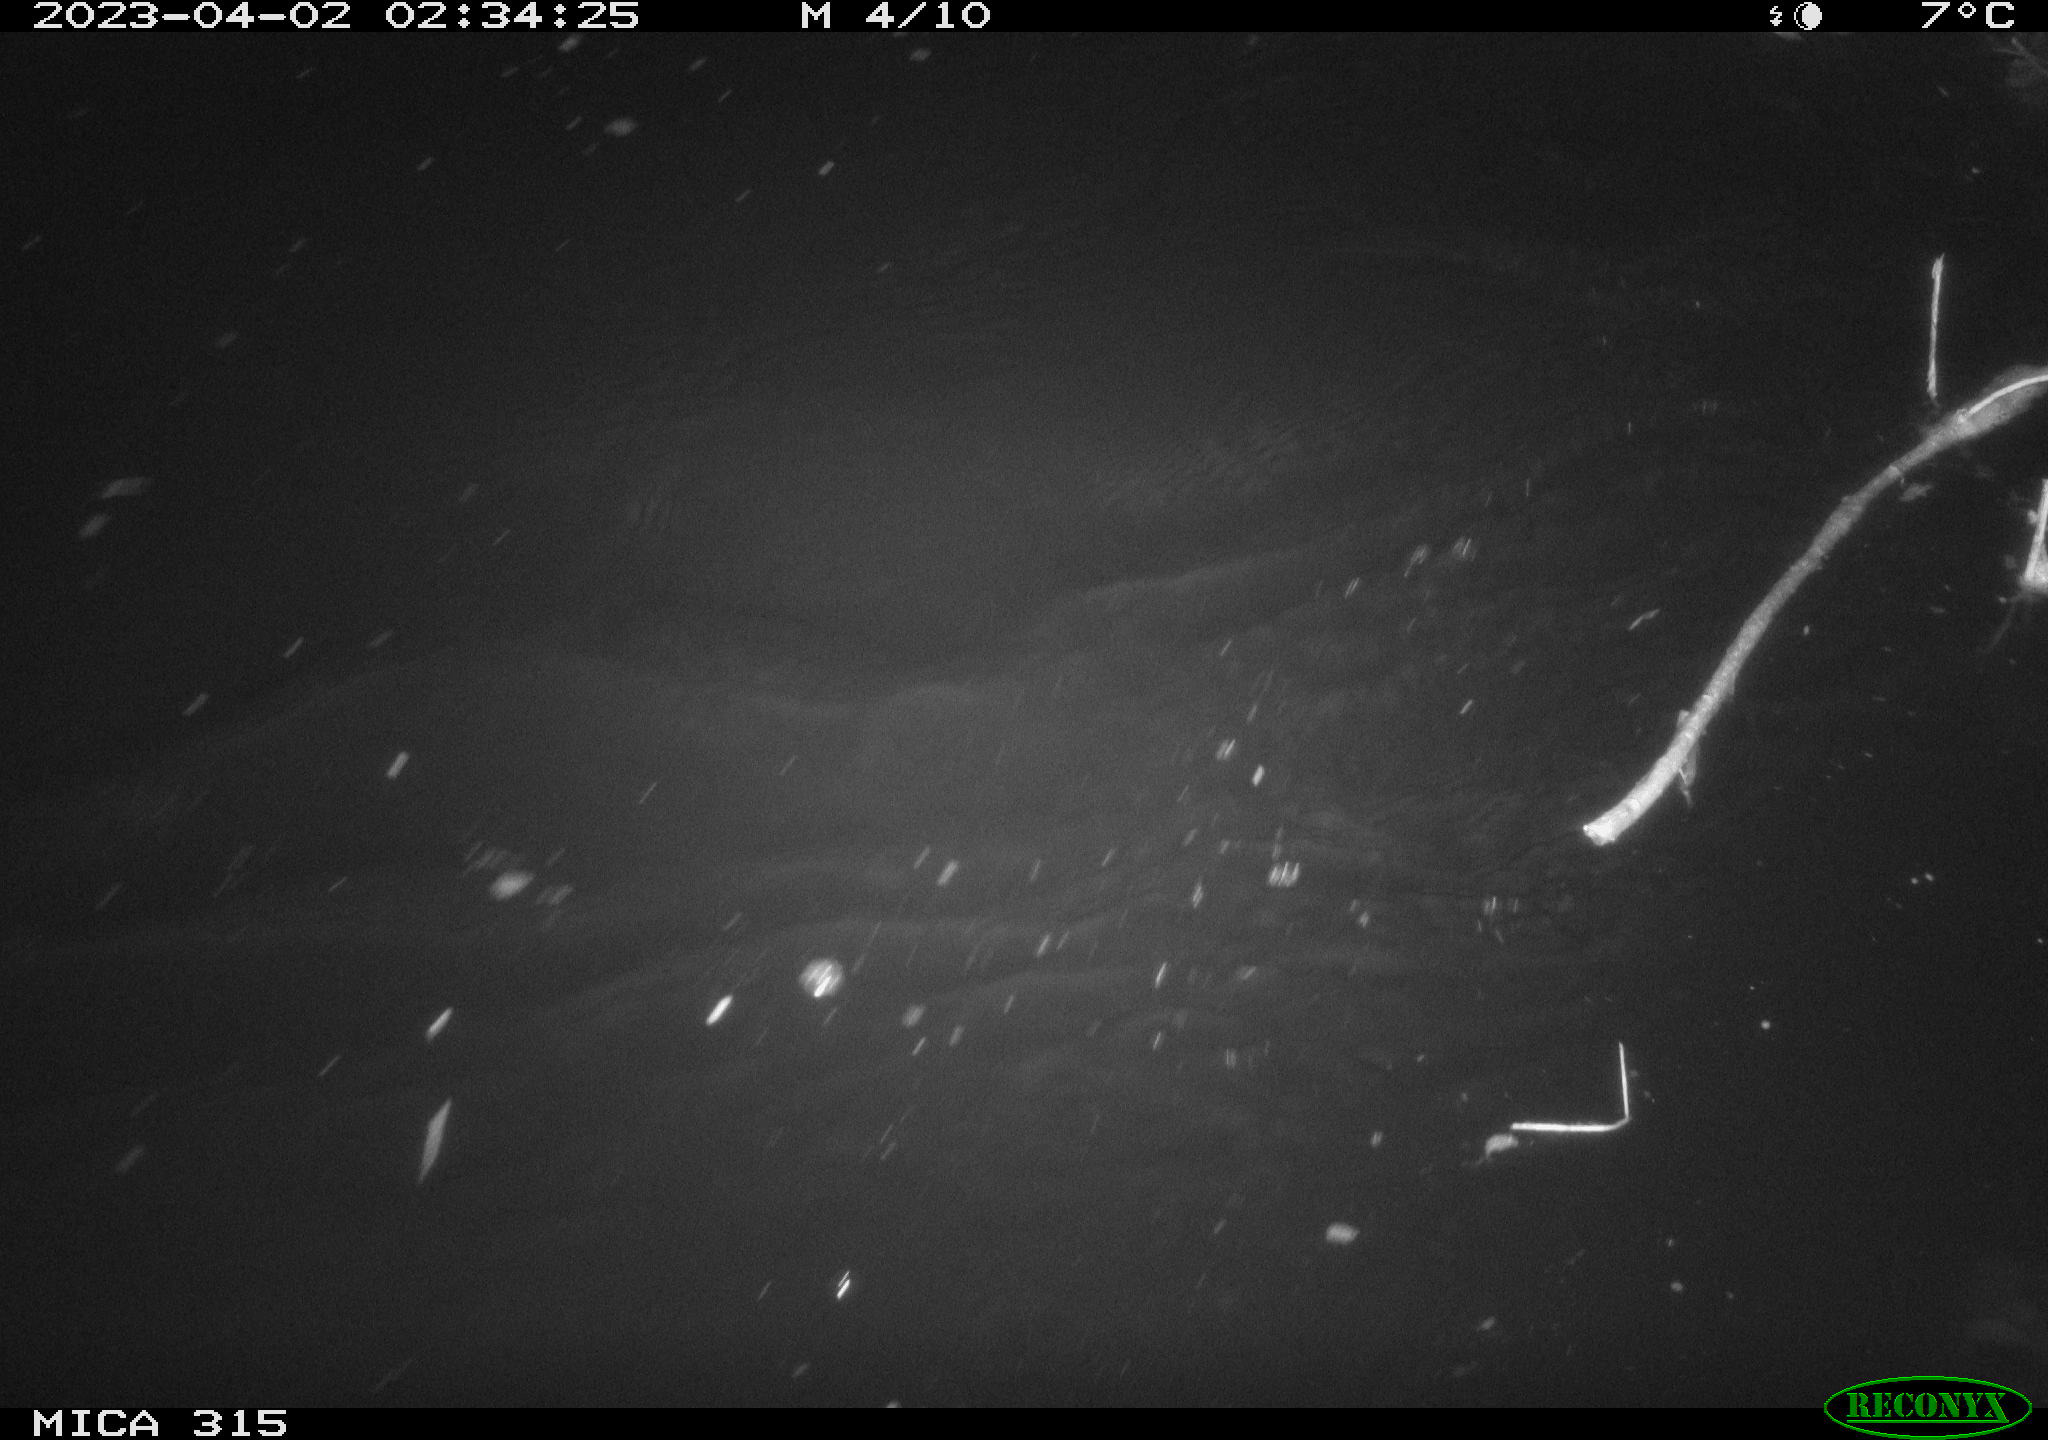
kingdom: Animalia
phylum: Chordata
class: Aves
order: Anseriformes
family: Anatidae
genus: Anas
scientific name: Anas
